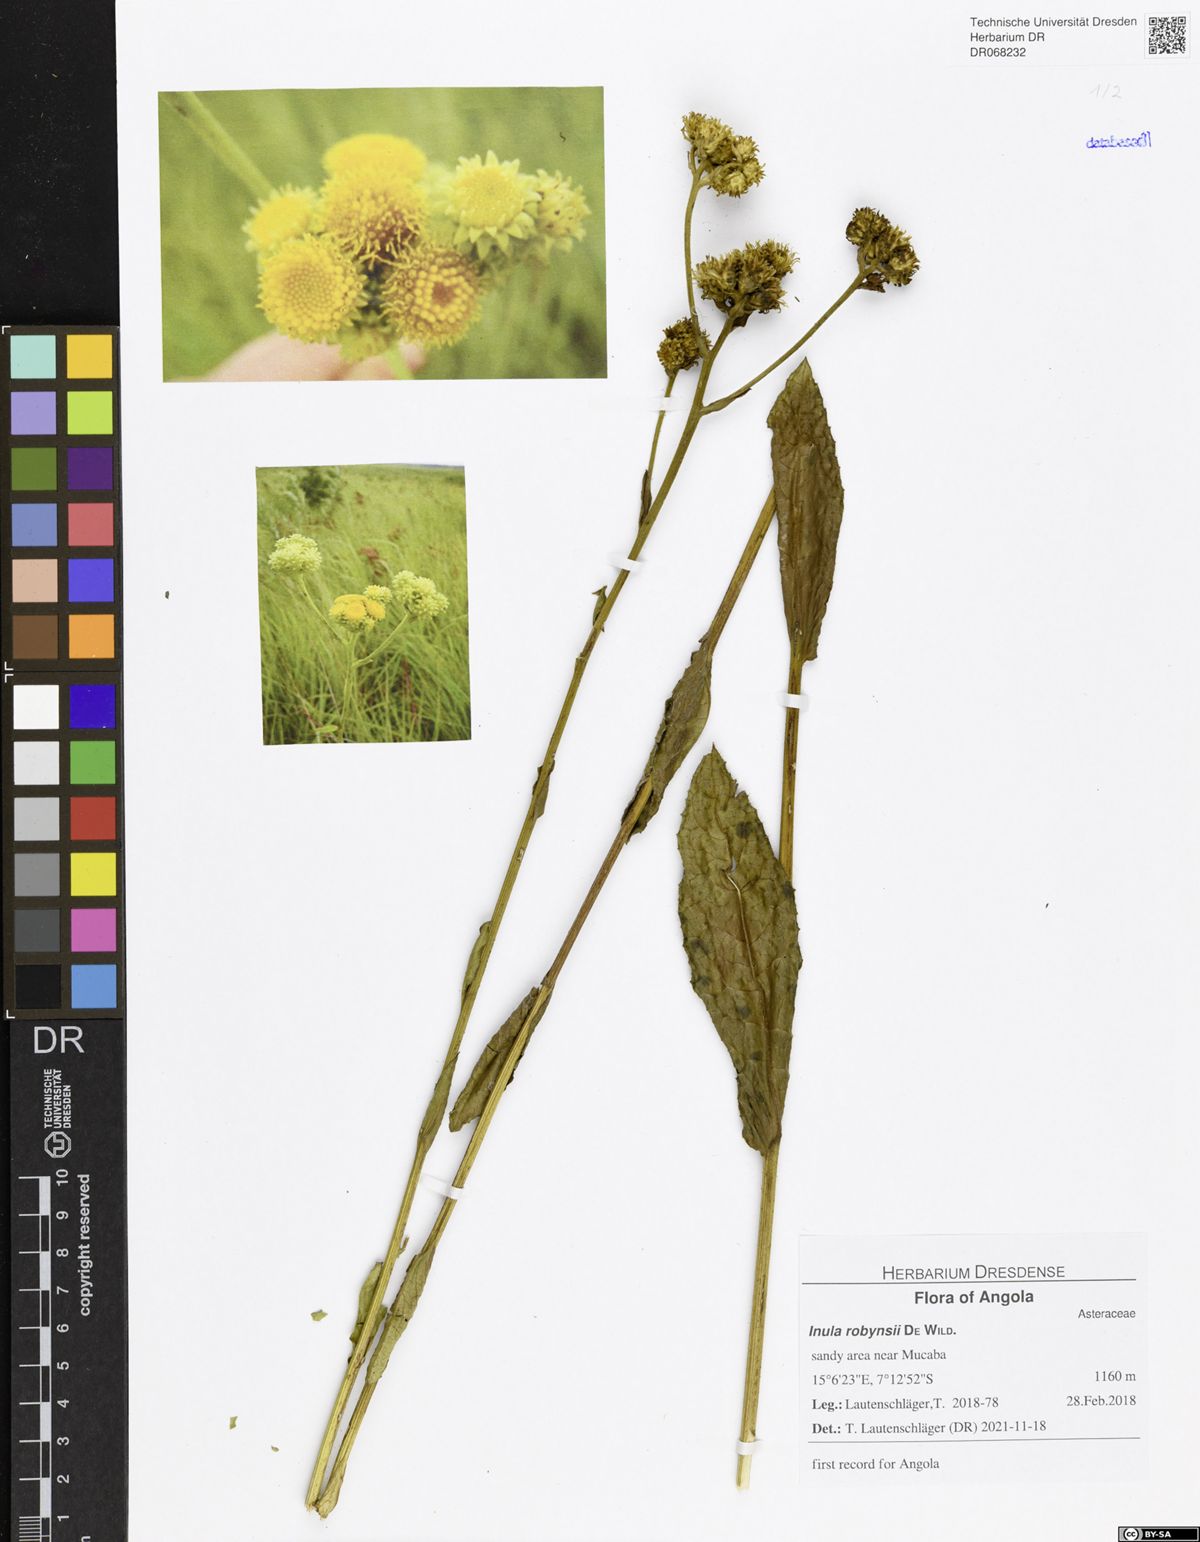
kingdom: Plantae
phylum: Tracheophyta
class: Magnoliopsida
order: Asterales
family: Asteraceae
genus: Inula
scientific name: Inula robynsii
